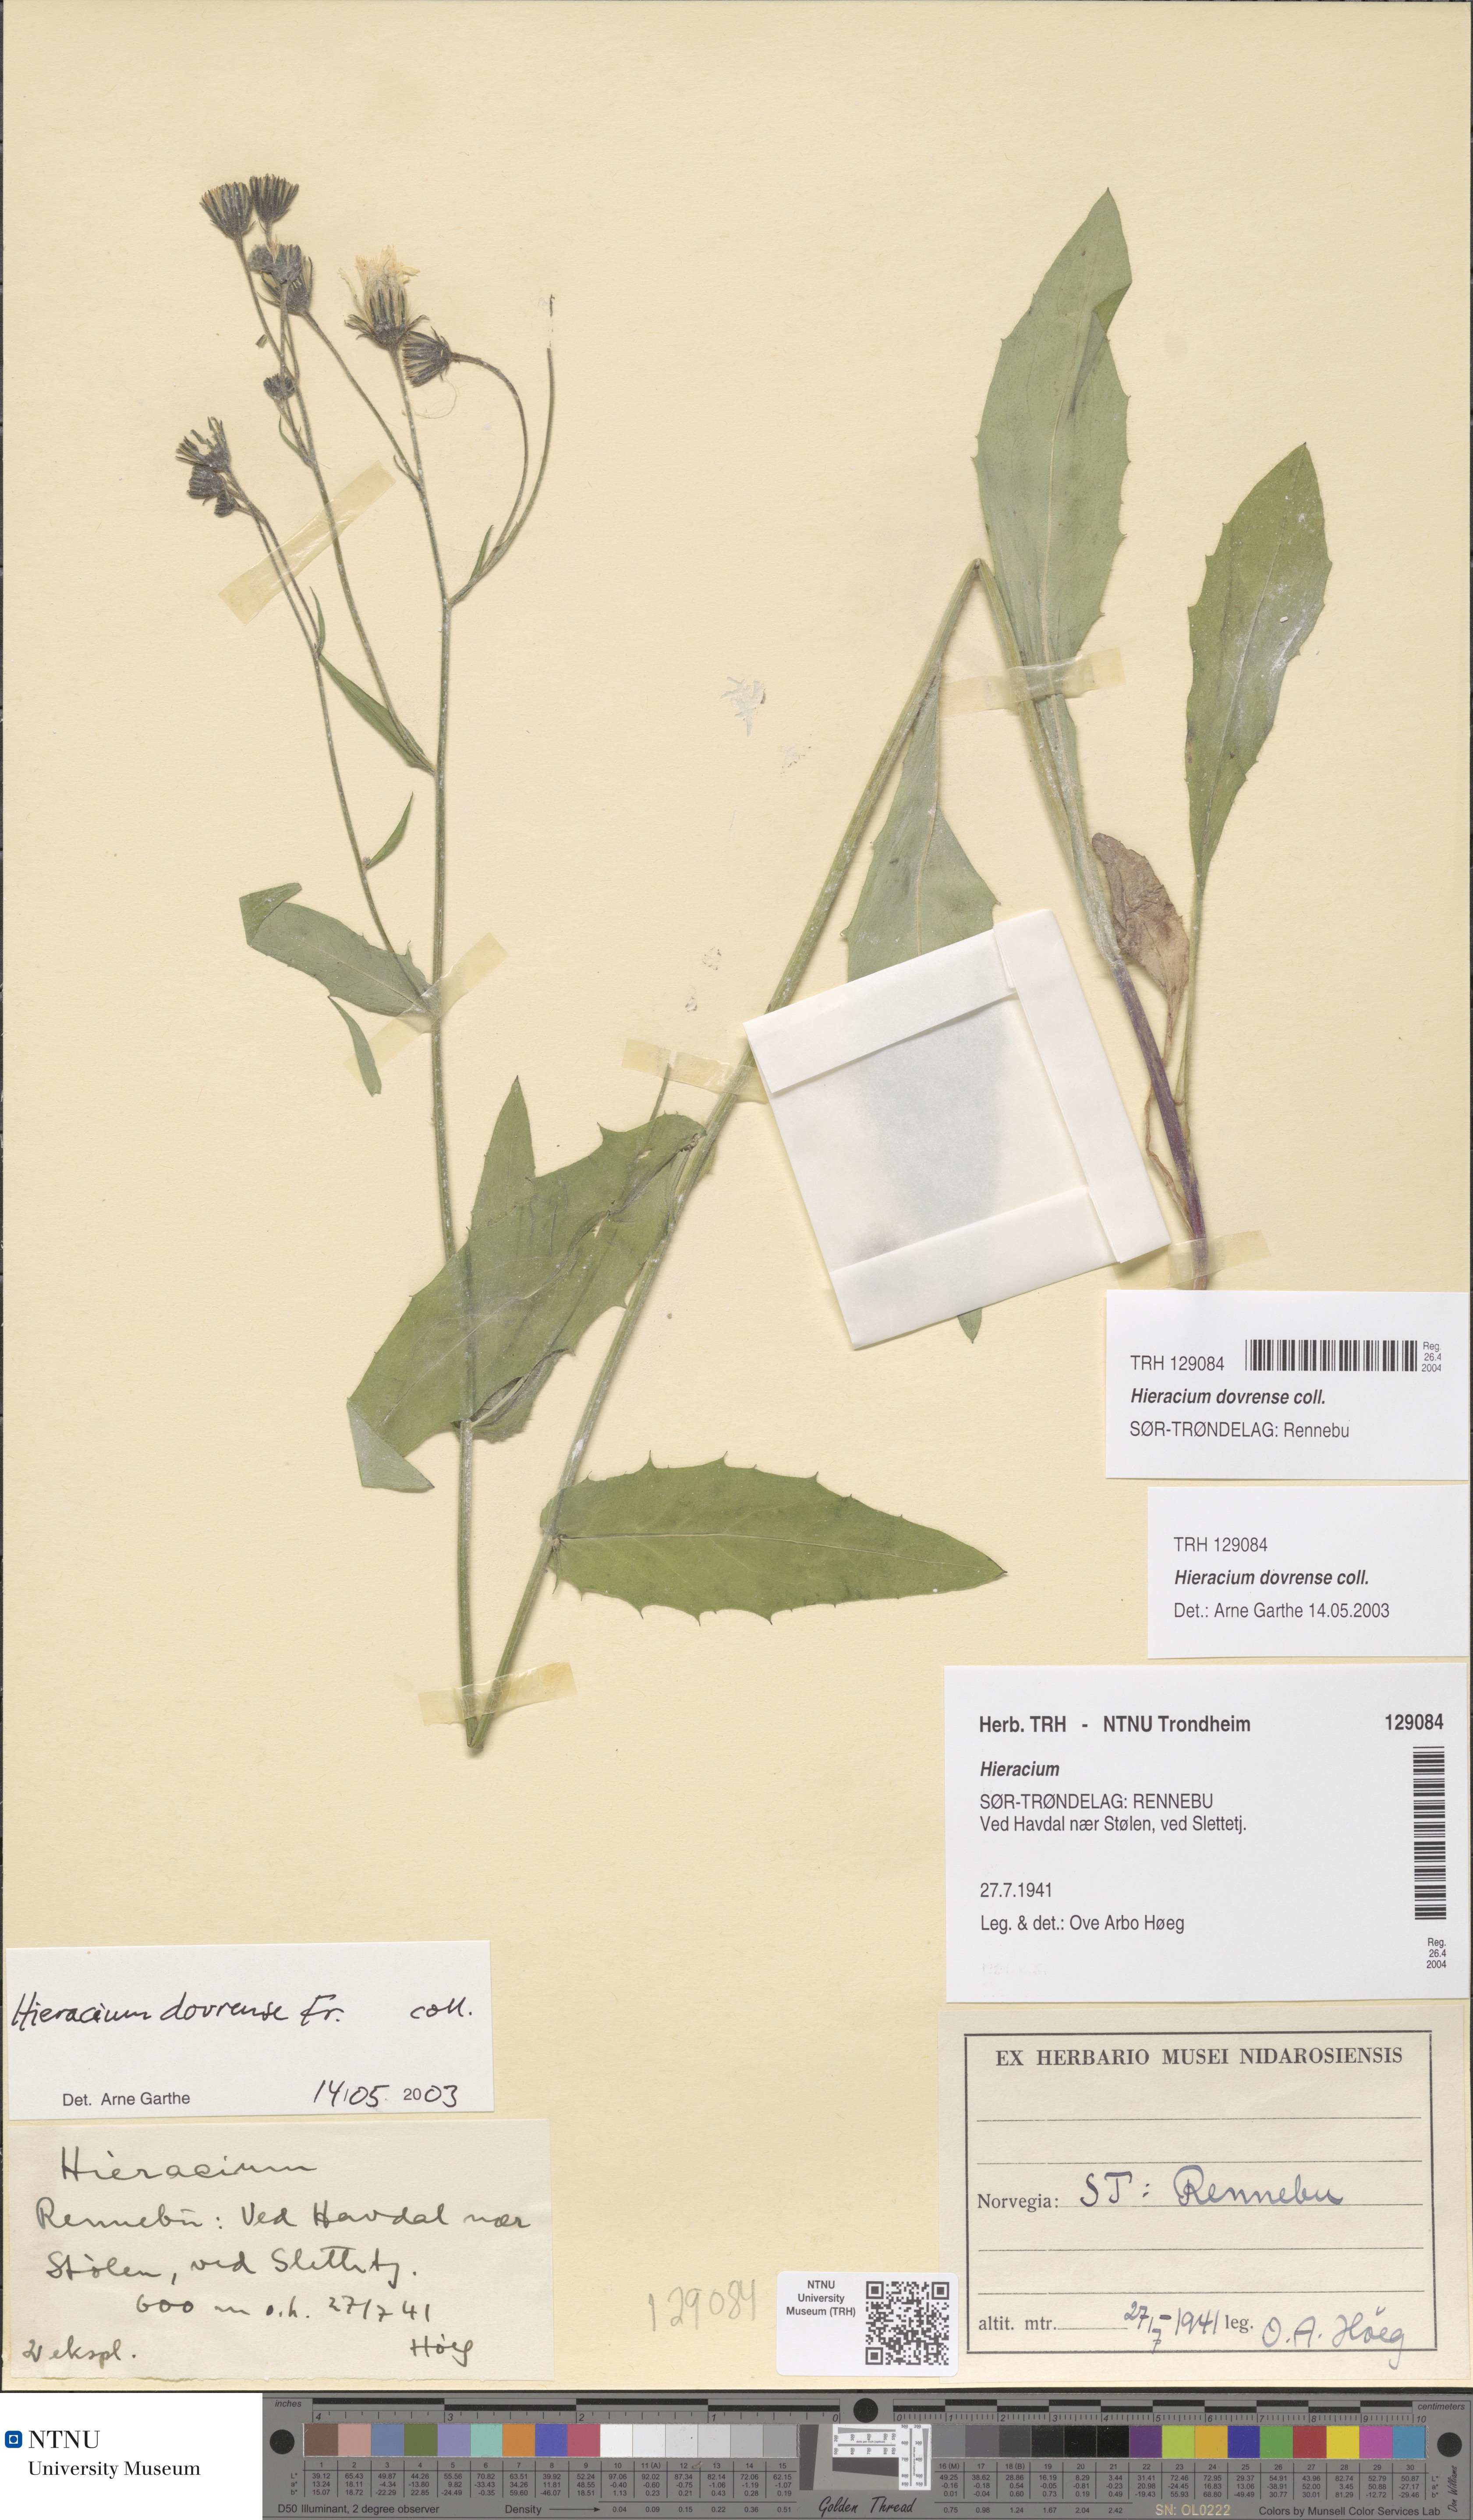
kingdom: Plantae
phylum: Tracheophyta
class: Magnoliopsida
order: Asterales
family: Asteraceae
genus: Hieracium
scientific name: Hieracium dovrense
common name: Dovre hawkweed
